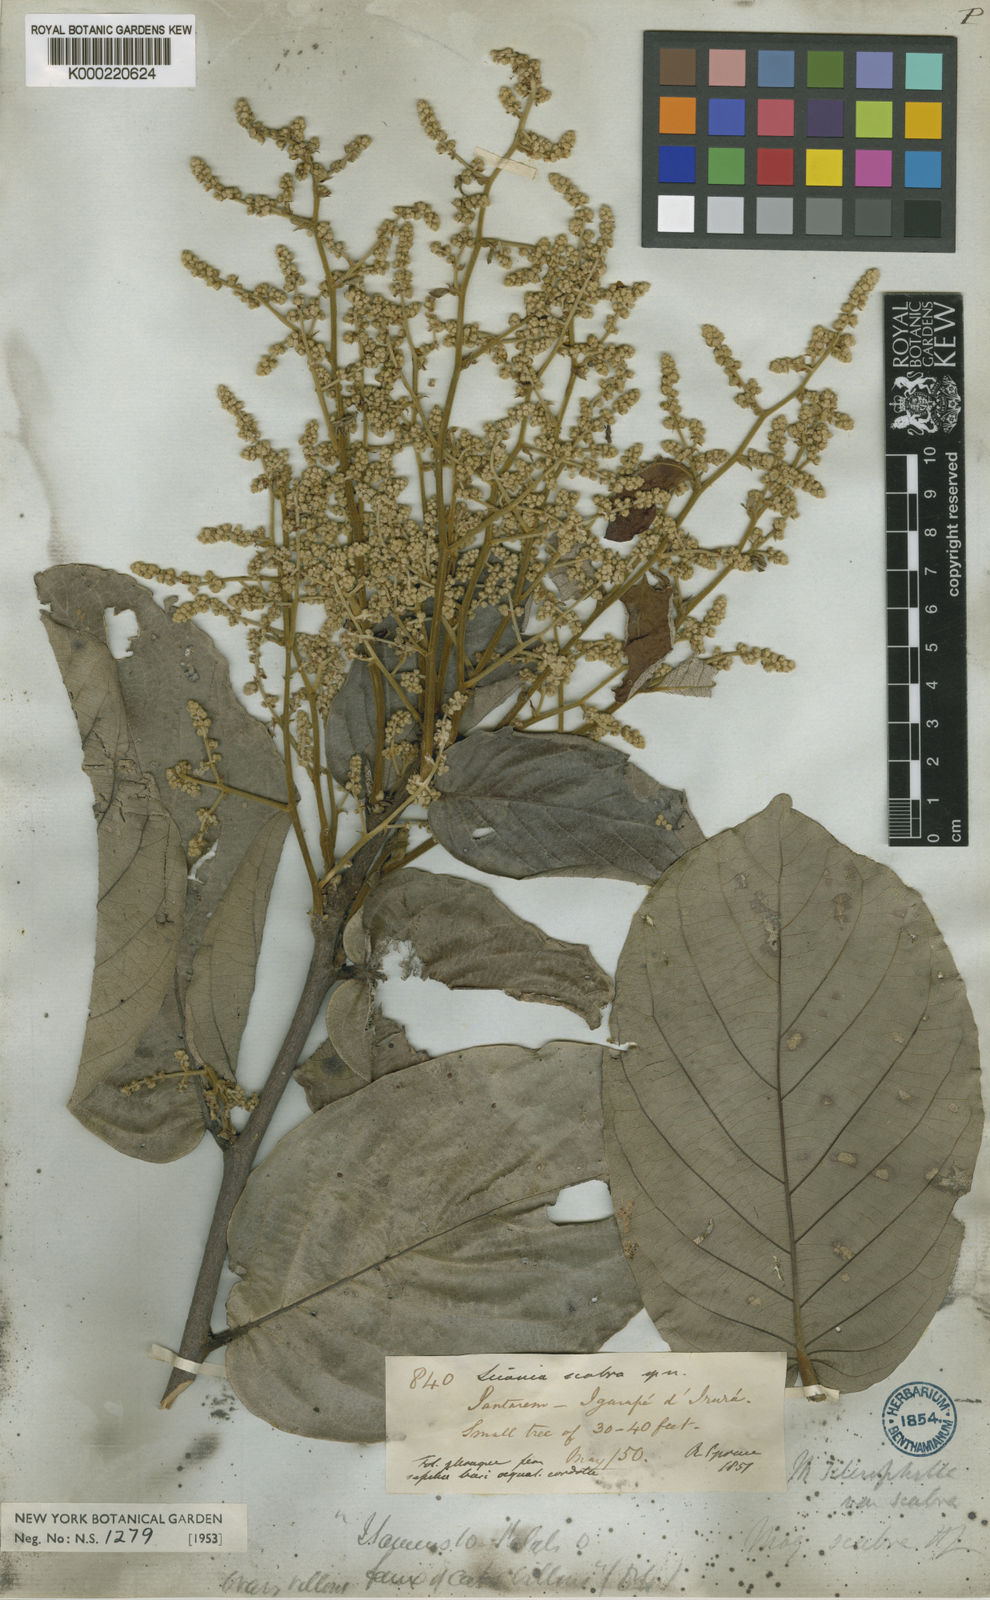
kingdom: Plantae
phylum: Tracheophyta
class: Magnoliopsida
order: Malpighiales
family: Chrysobalanaceae
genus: Licania
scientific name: Licania sclerophylla
